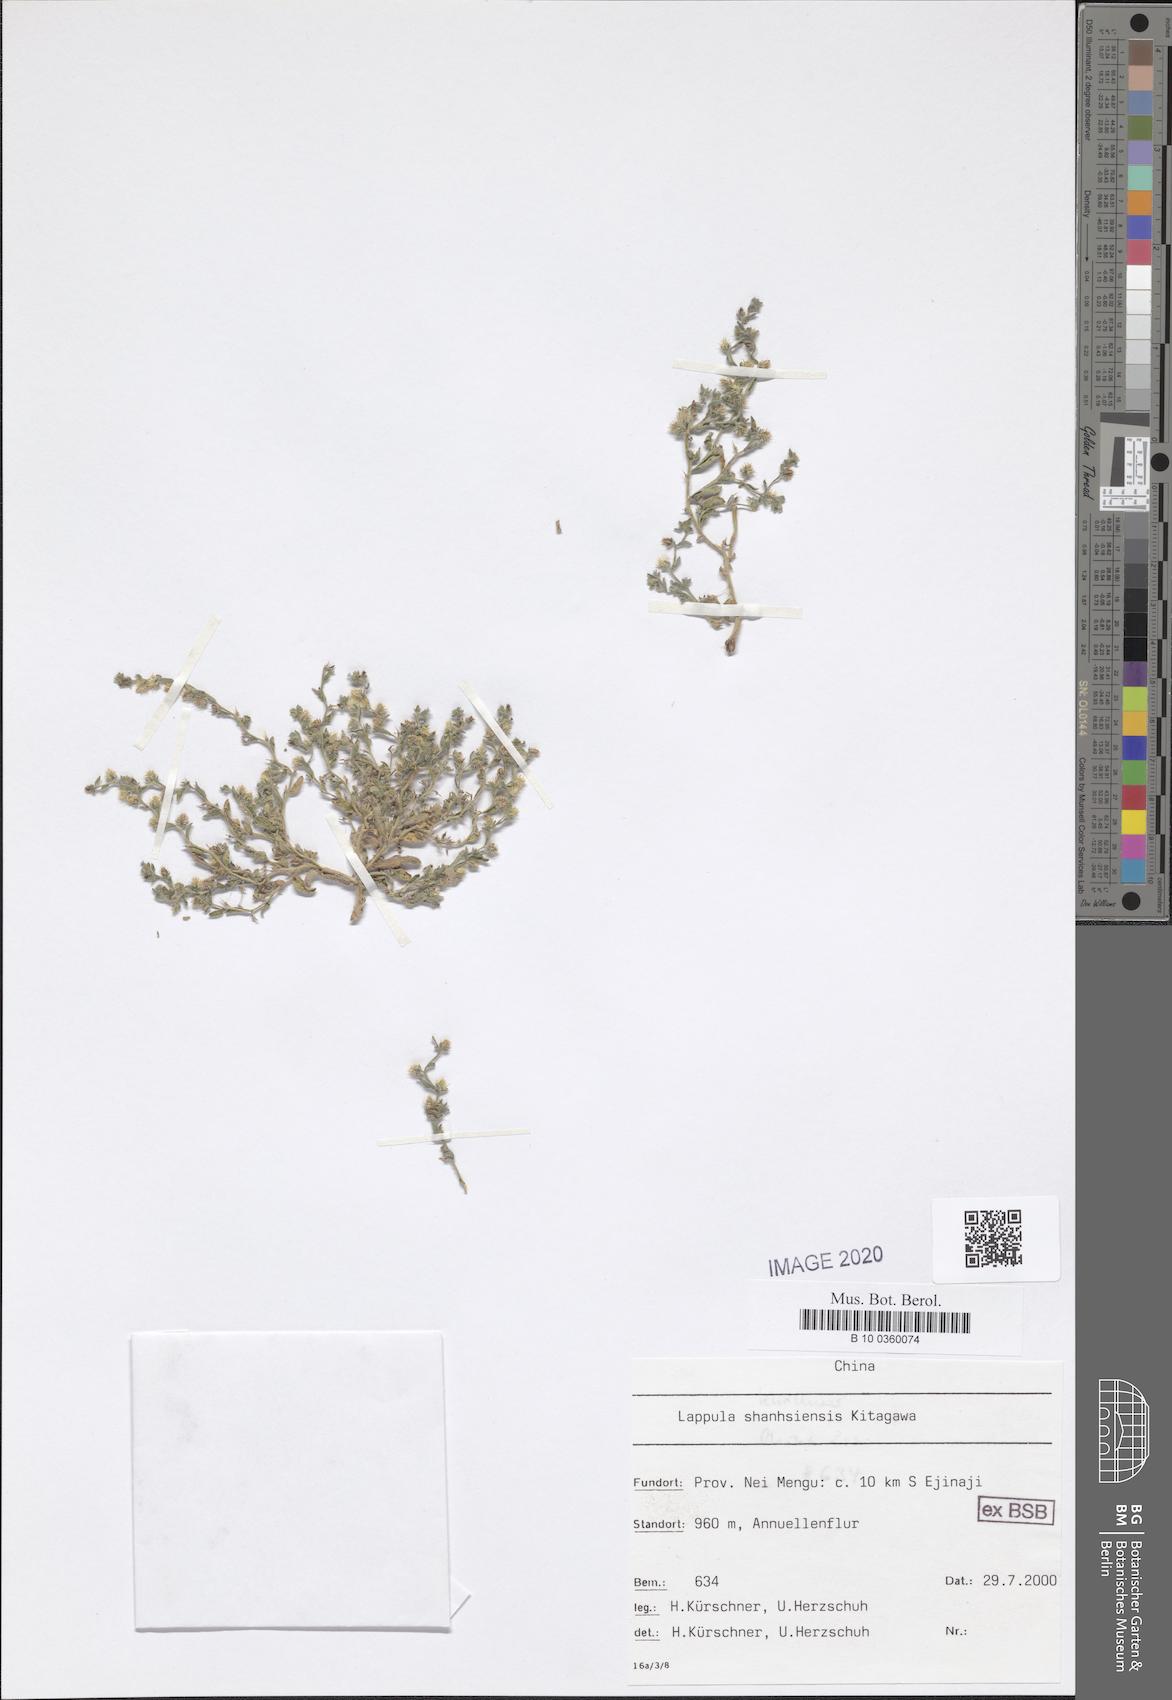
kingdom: Plantae
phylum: Tracheophyta
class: Magnoliopsida
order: Boraginales
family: Boraginaceae
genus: Lappula
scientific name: Lappula shanhsiensis
